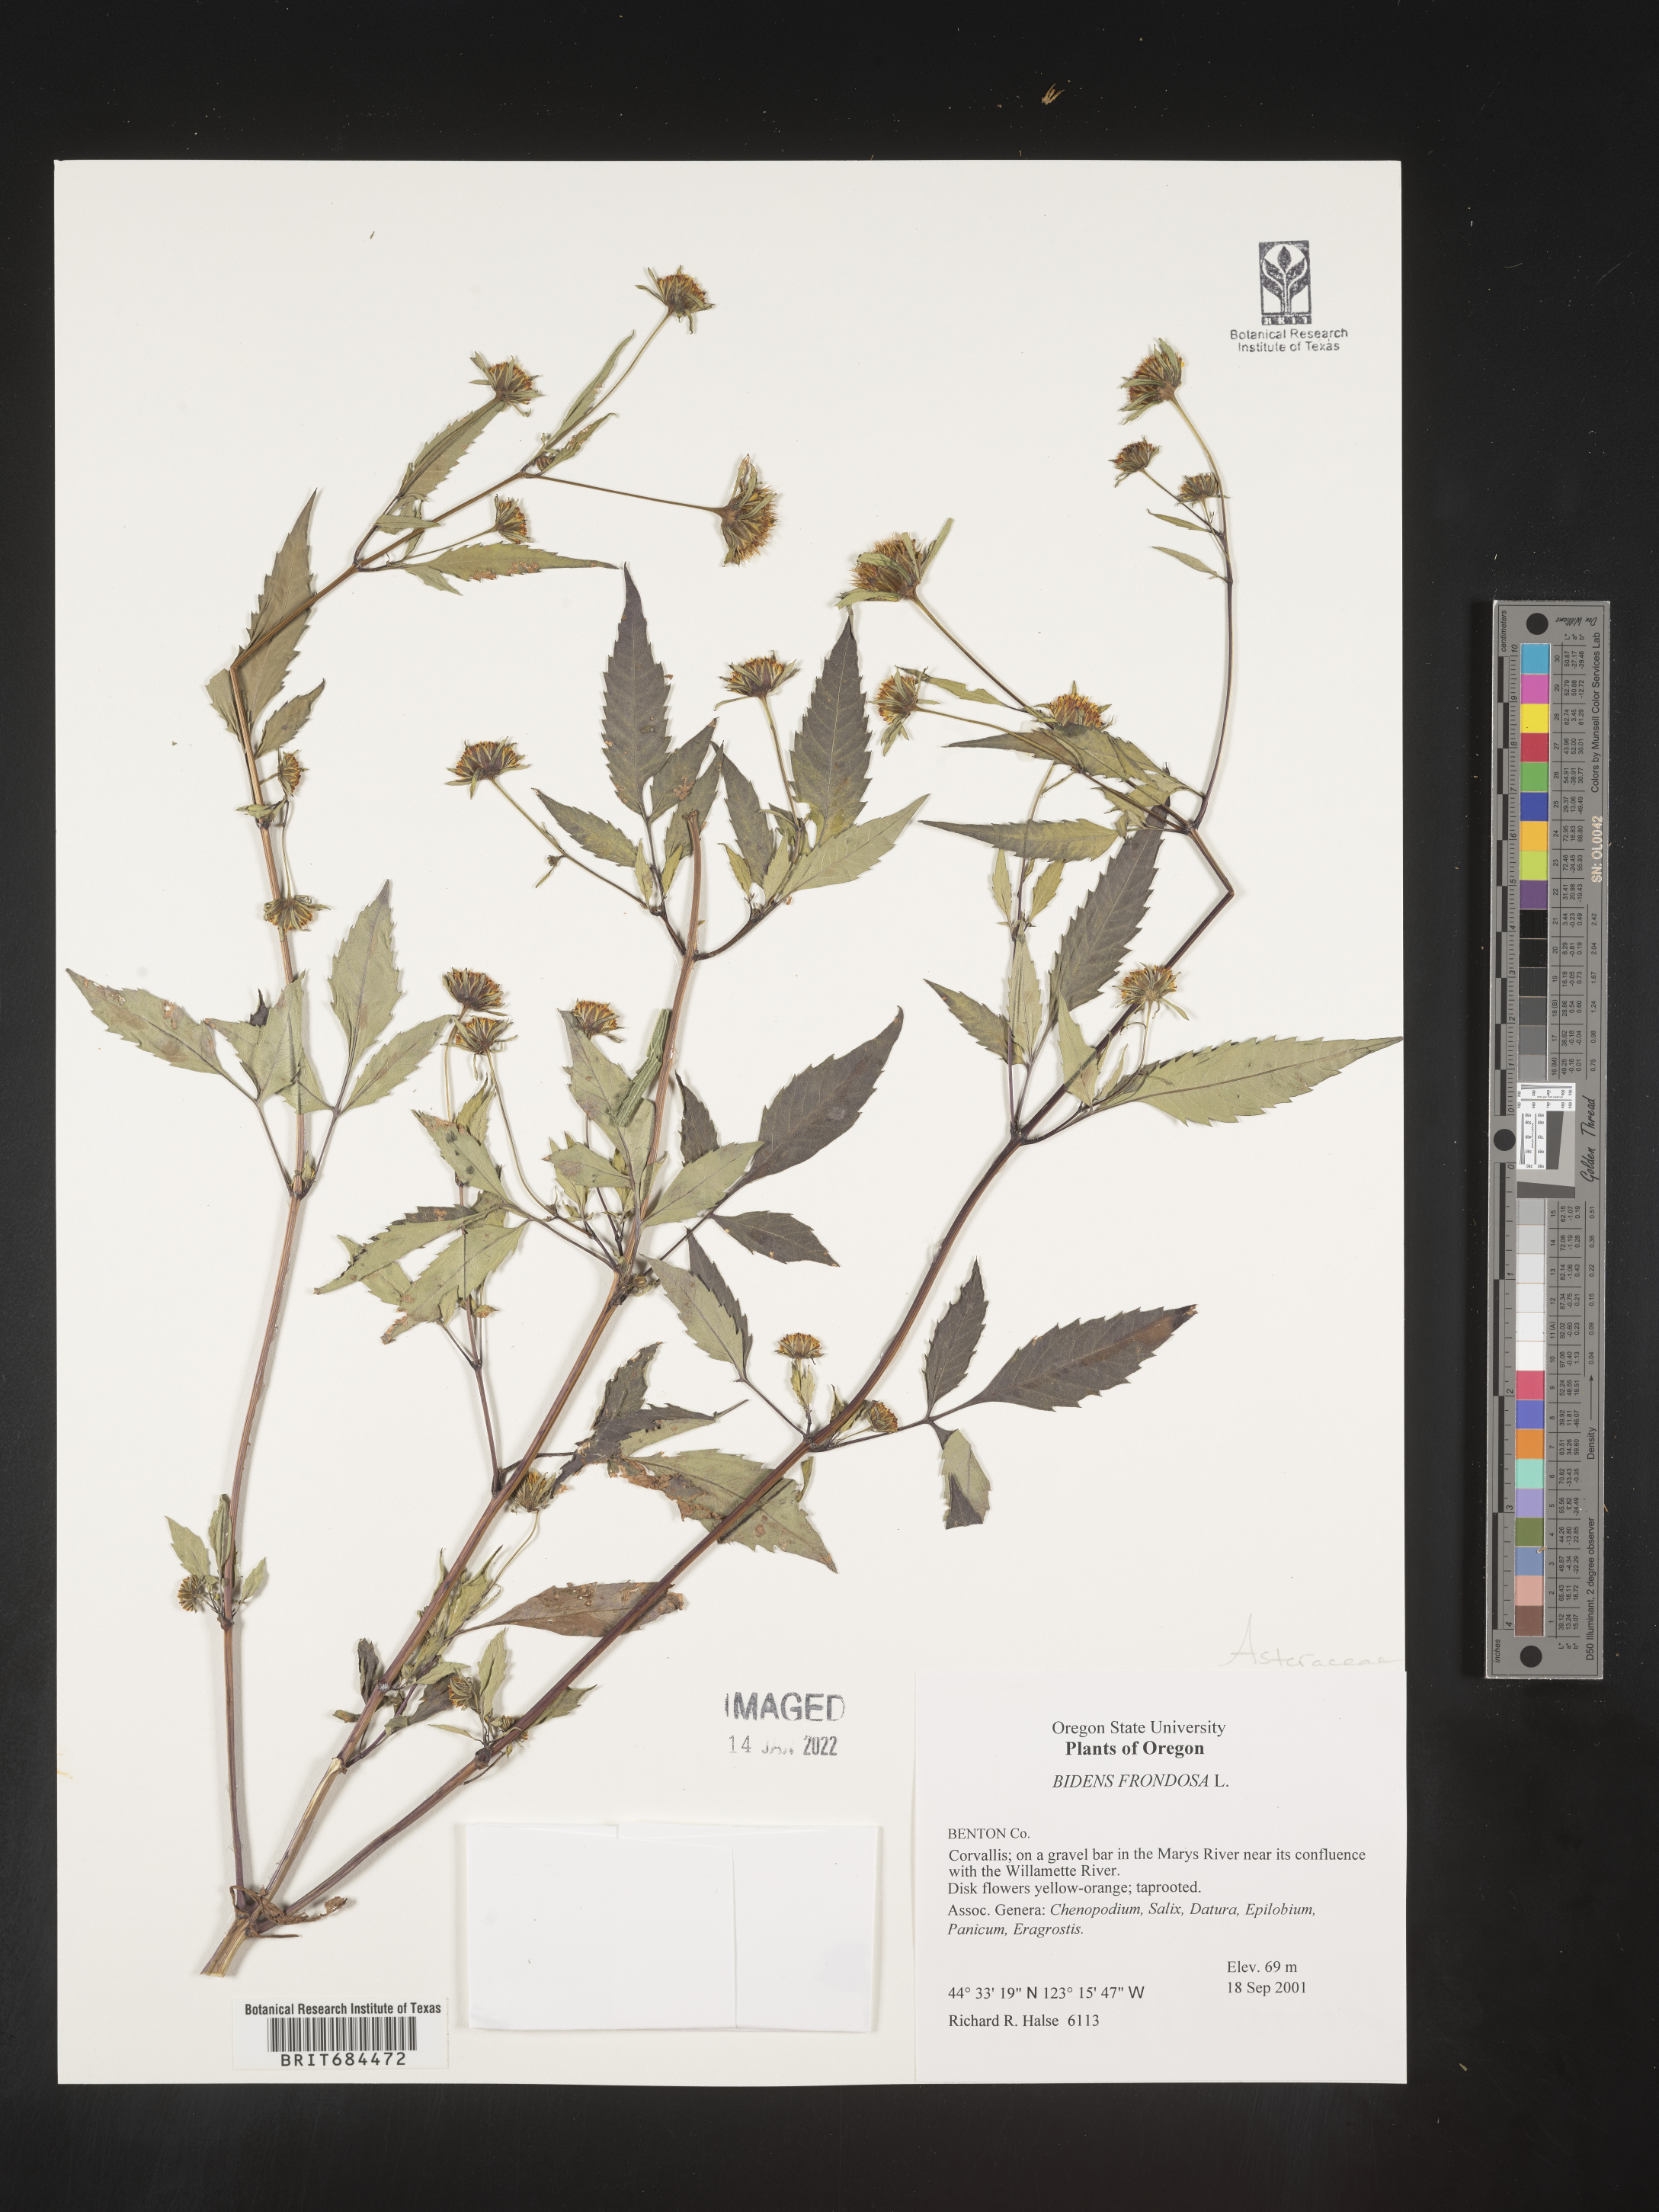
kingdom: Plantae
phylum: Tracheophyta
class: Magnoliopsida
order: Asterales
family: Asteraceae
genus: Bidens
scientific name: Bidens frondosa
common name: Beggarticks
